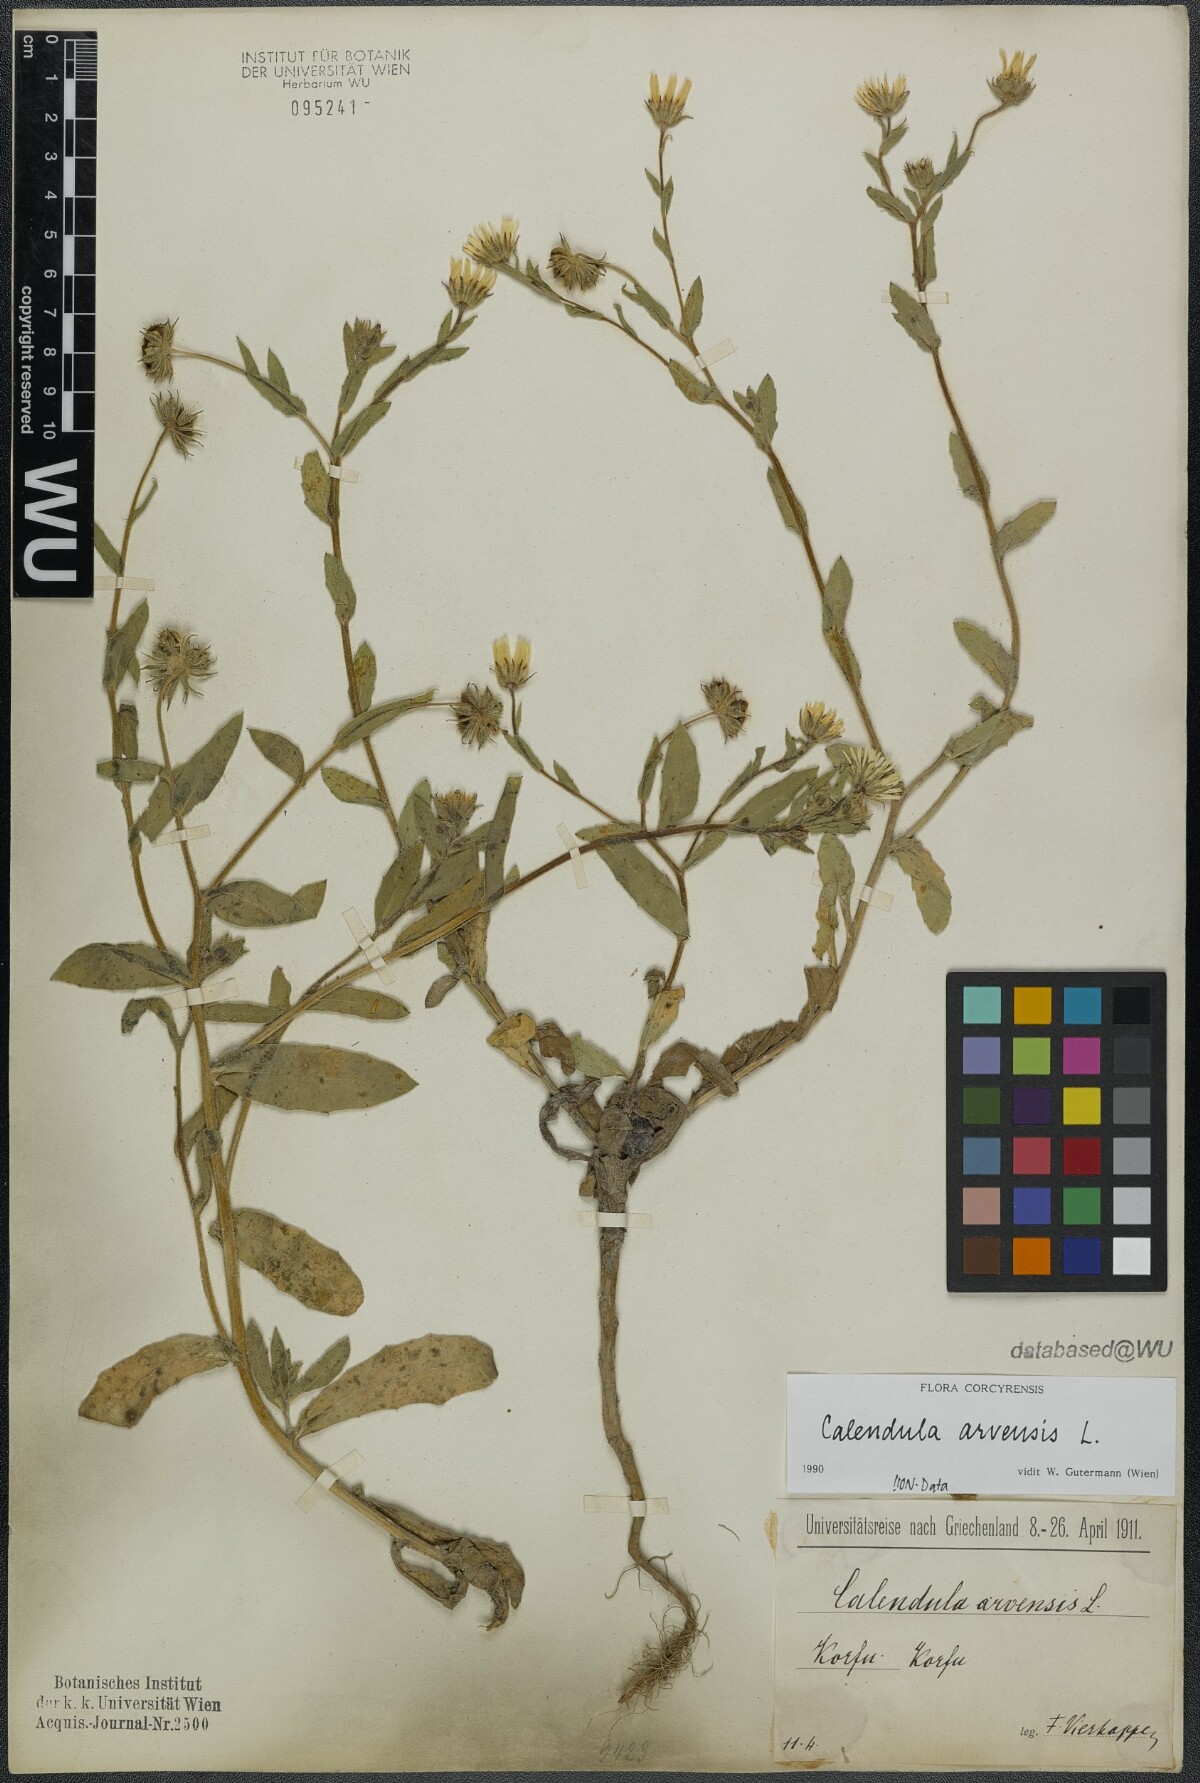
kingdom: Plantae
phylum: Tracheophyta
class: Magnoliopsida
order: Asterales
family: Asteraceae
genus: Calendula
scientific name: Calendula arvensis
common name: Field marigold
